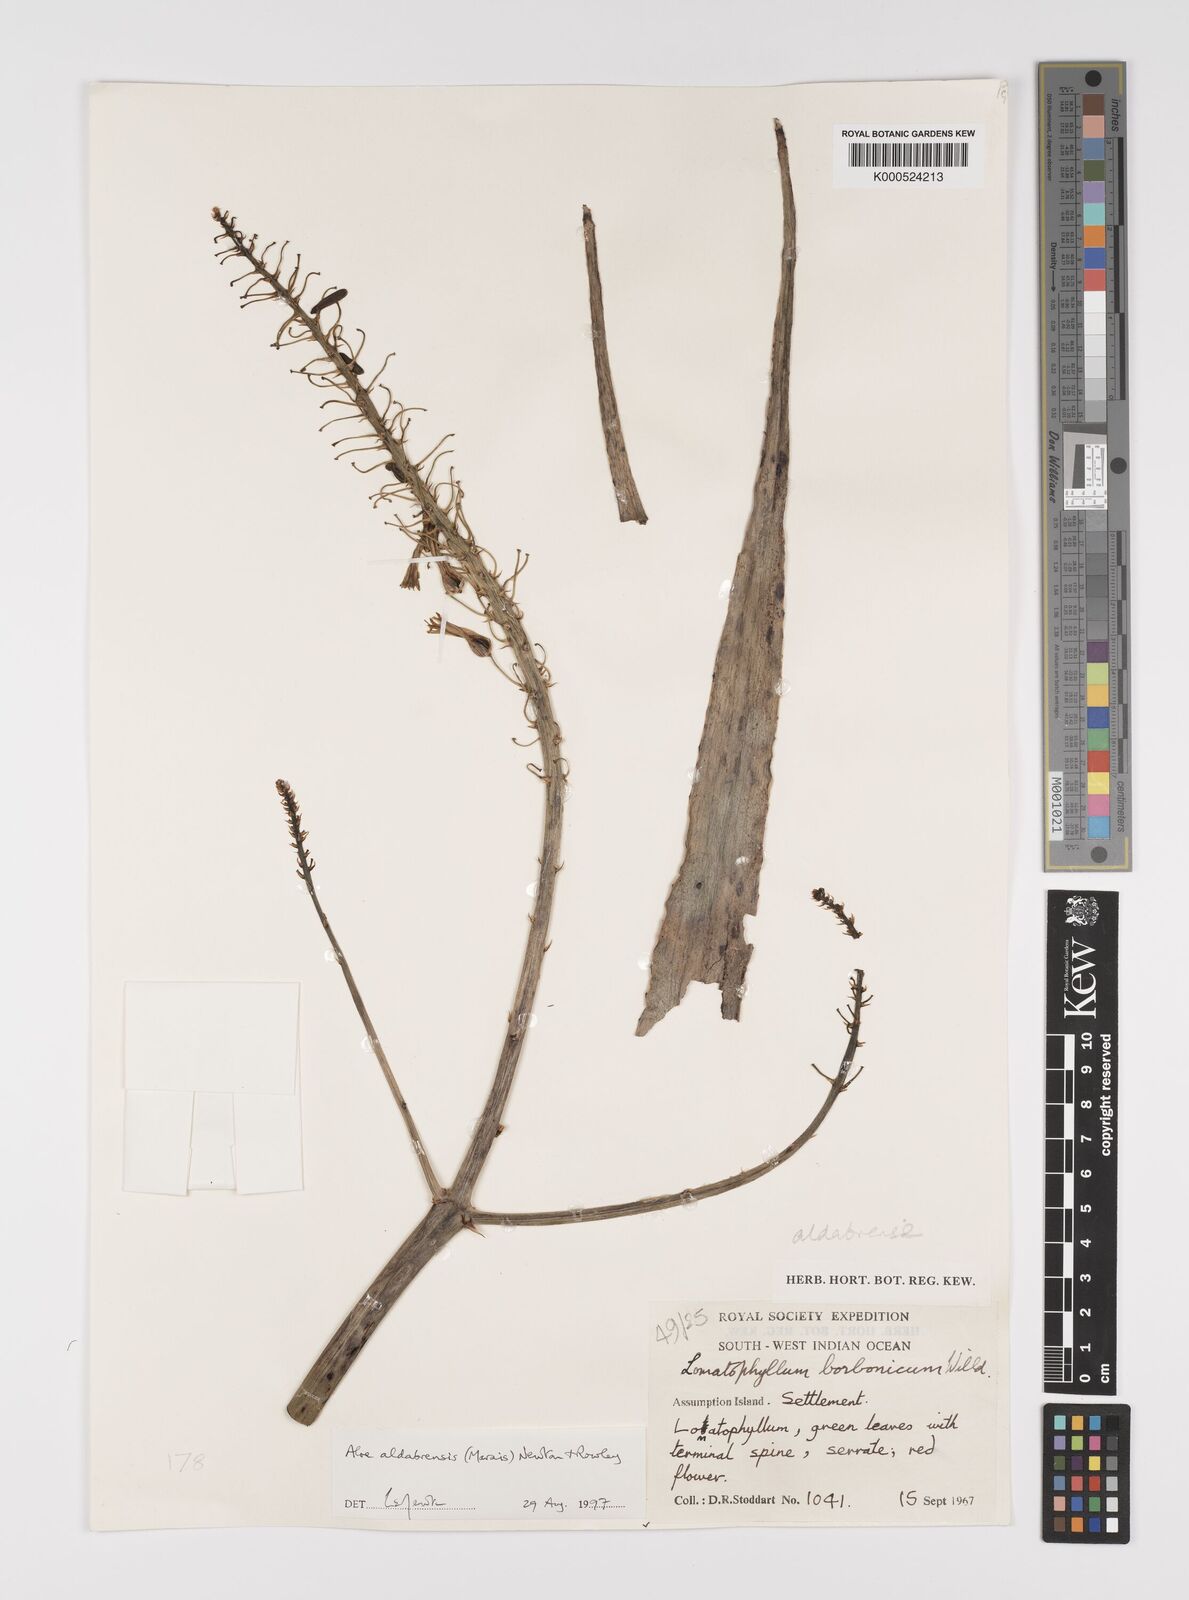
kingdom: Plantae
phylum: Tracheophyta
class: Liliopsida
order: Asparagales
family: Asphodelaceae
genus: Aloe
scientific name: Aloe aldabrensis
